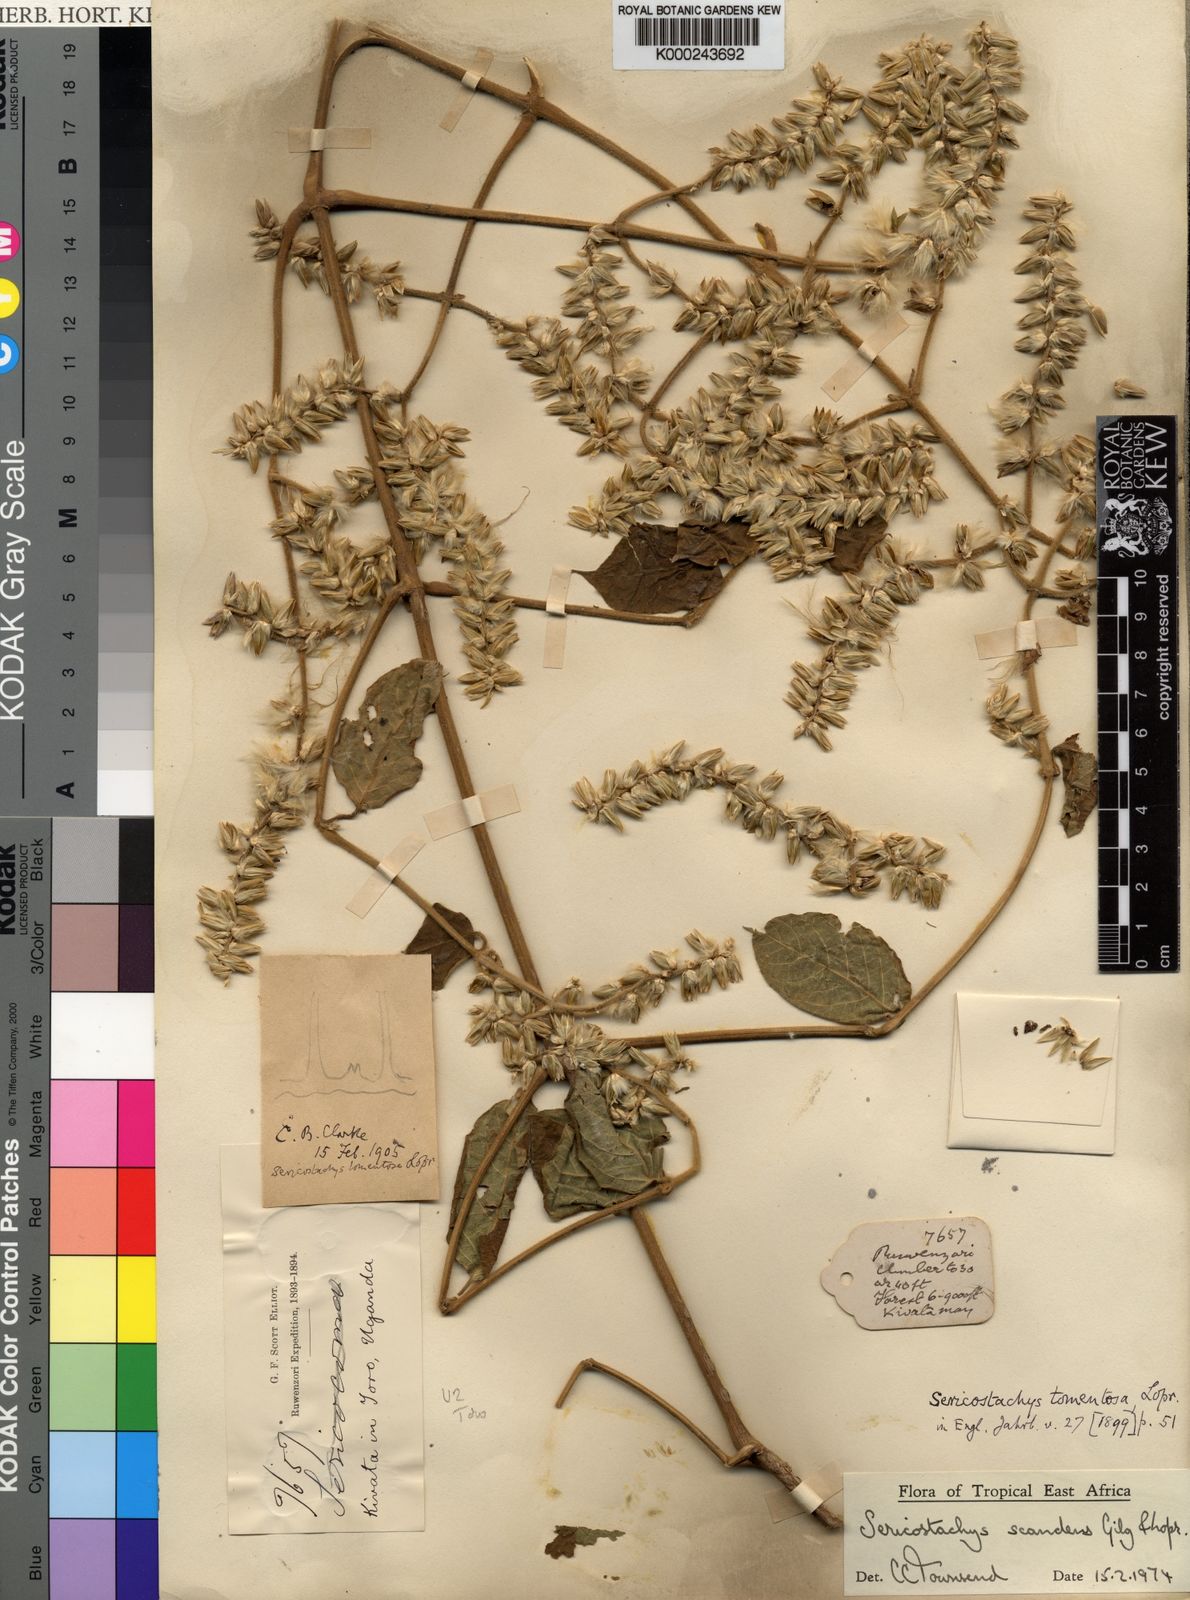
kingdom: Plantae
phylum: Tracheophyta
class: Magnoliopsida
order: Caryophyllales
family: Amaranthaceae
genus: Sericostachys
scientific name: Sericostachys scandens
